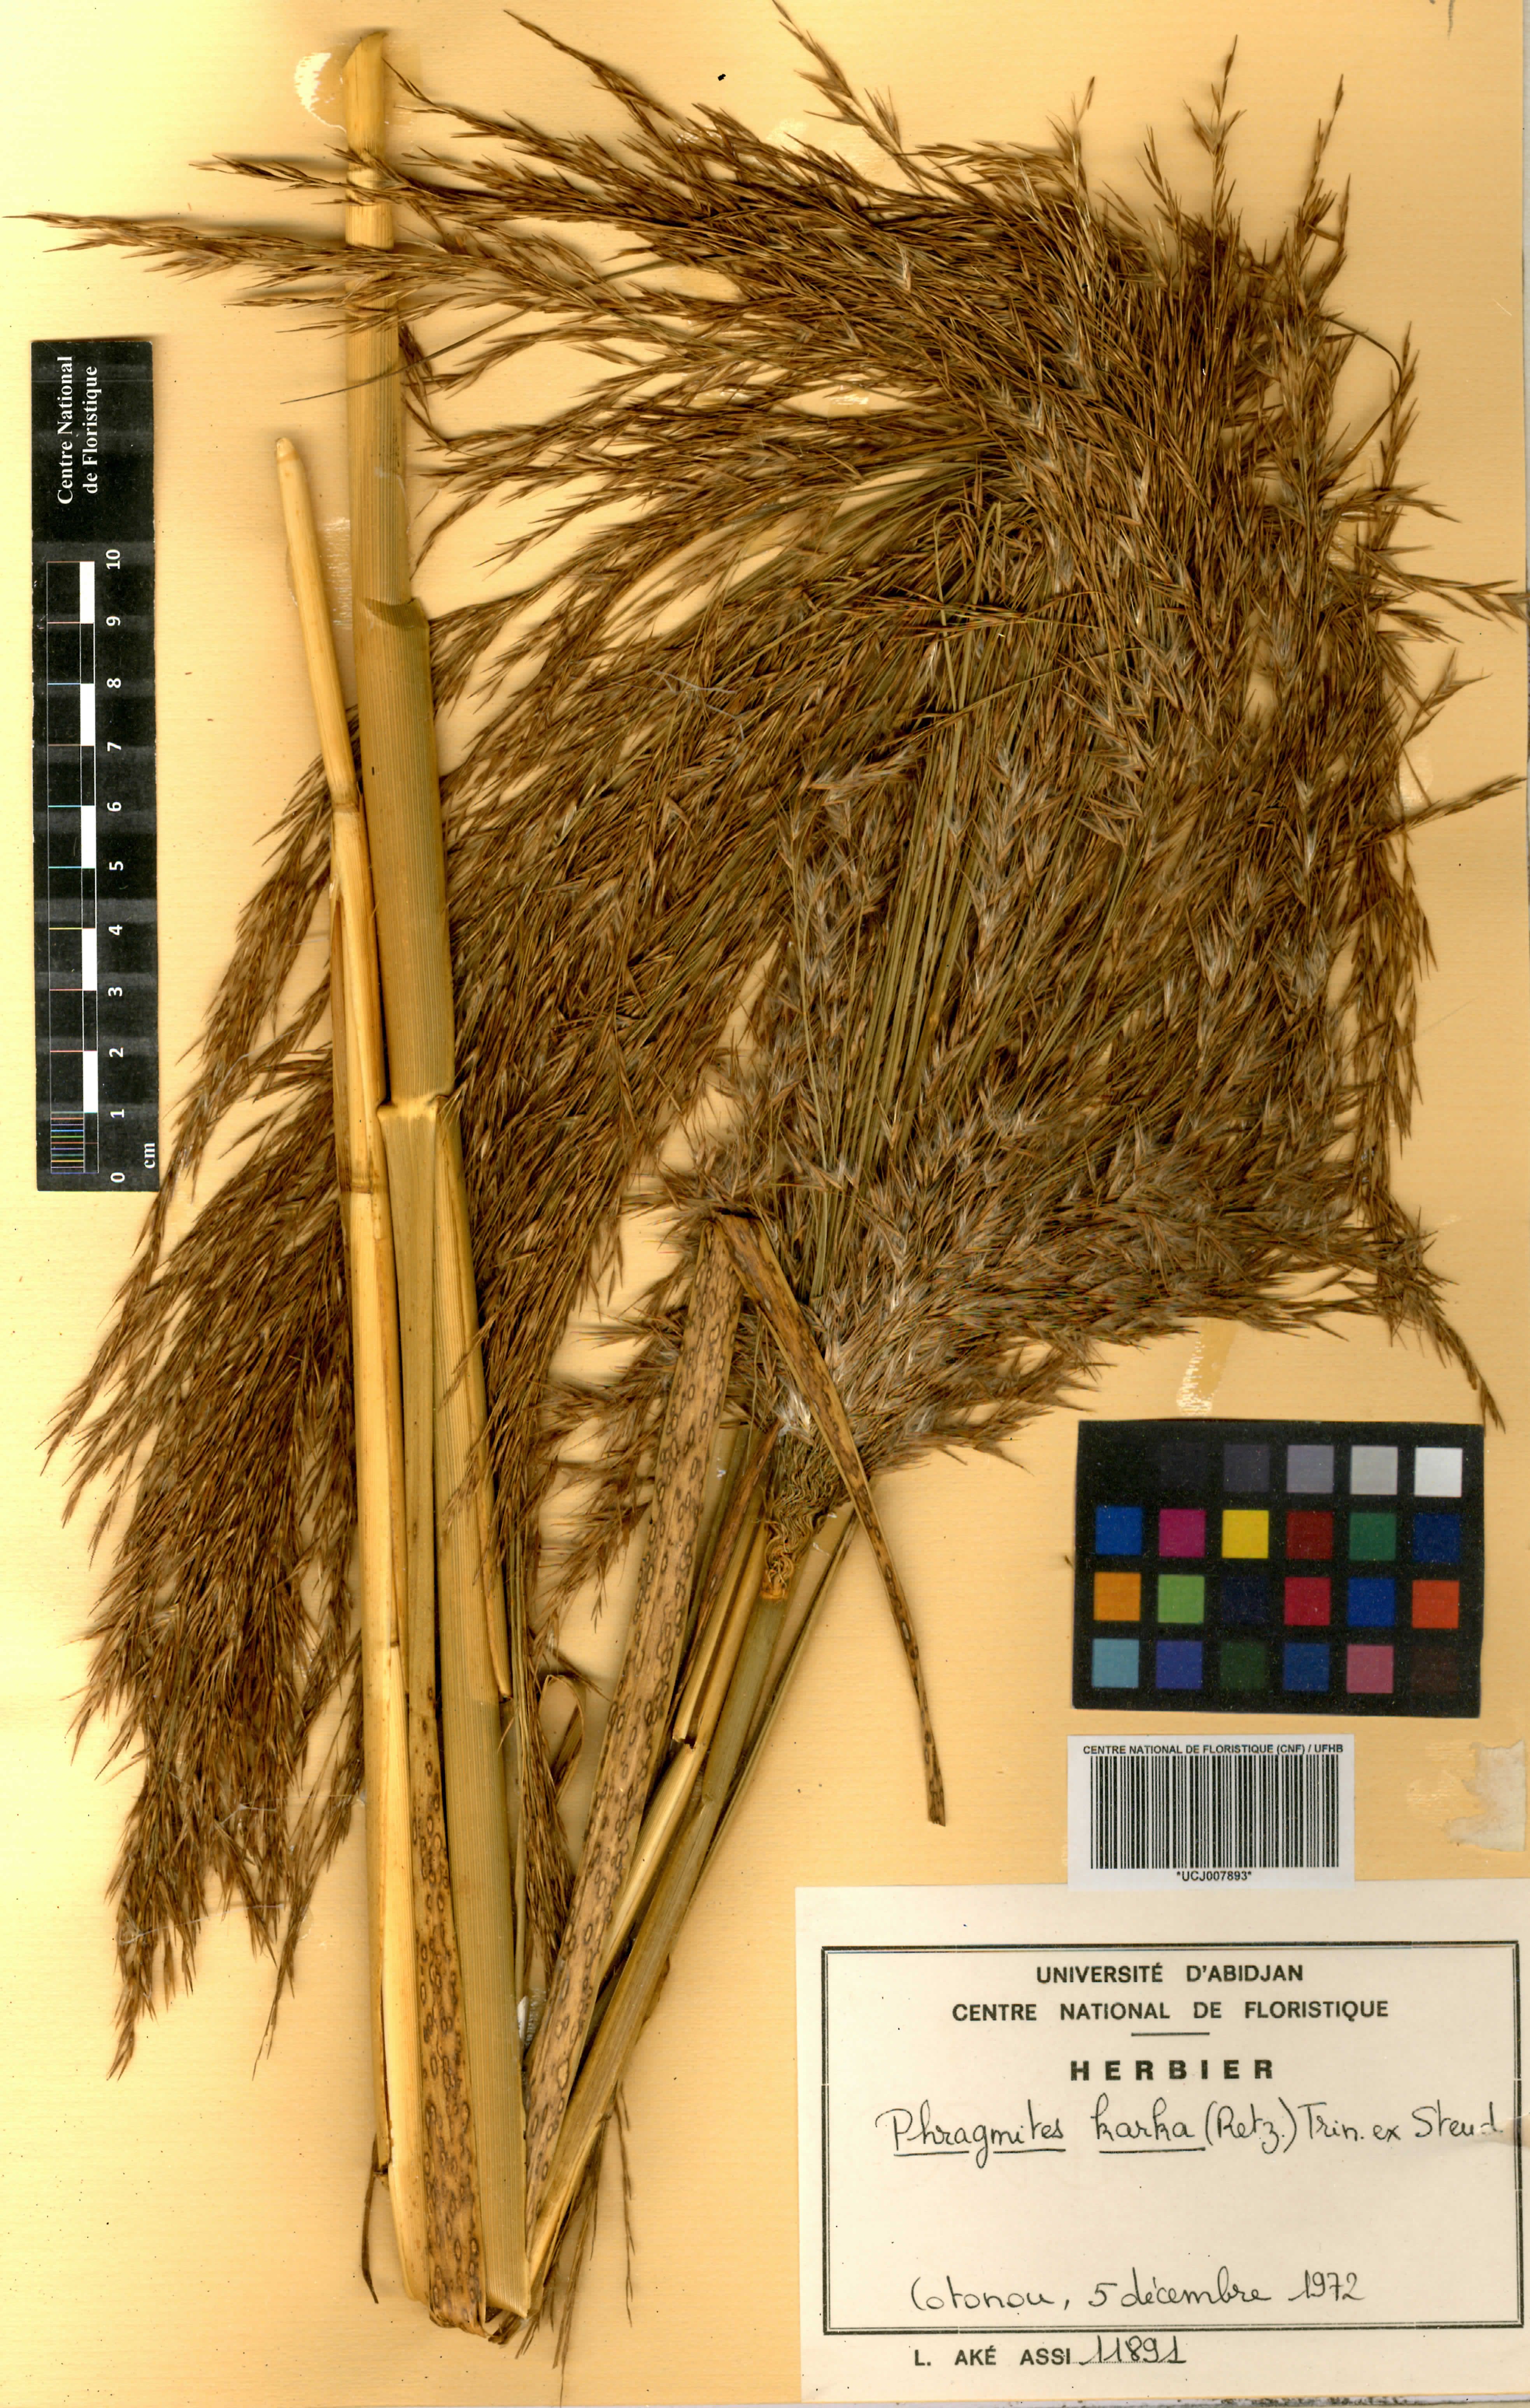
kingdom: Plantae
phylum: Tracheophyta
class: Liliopsida
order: Poales
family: Poaceae
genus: Phragmites
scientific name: Phragmites karka
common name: Tropical reed
